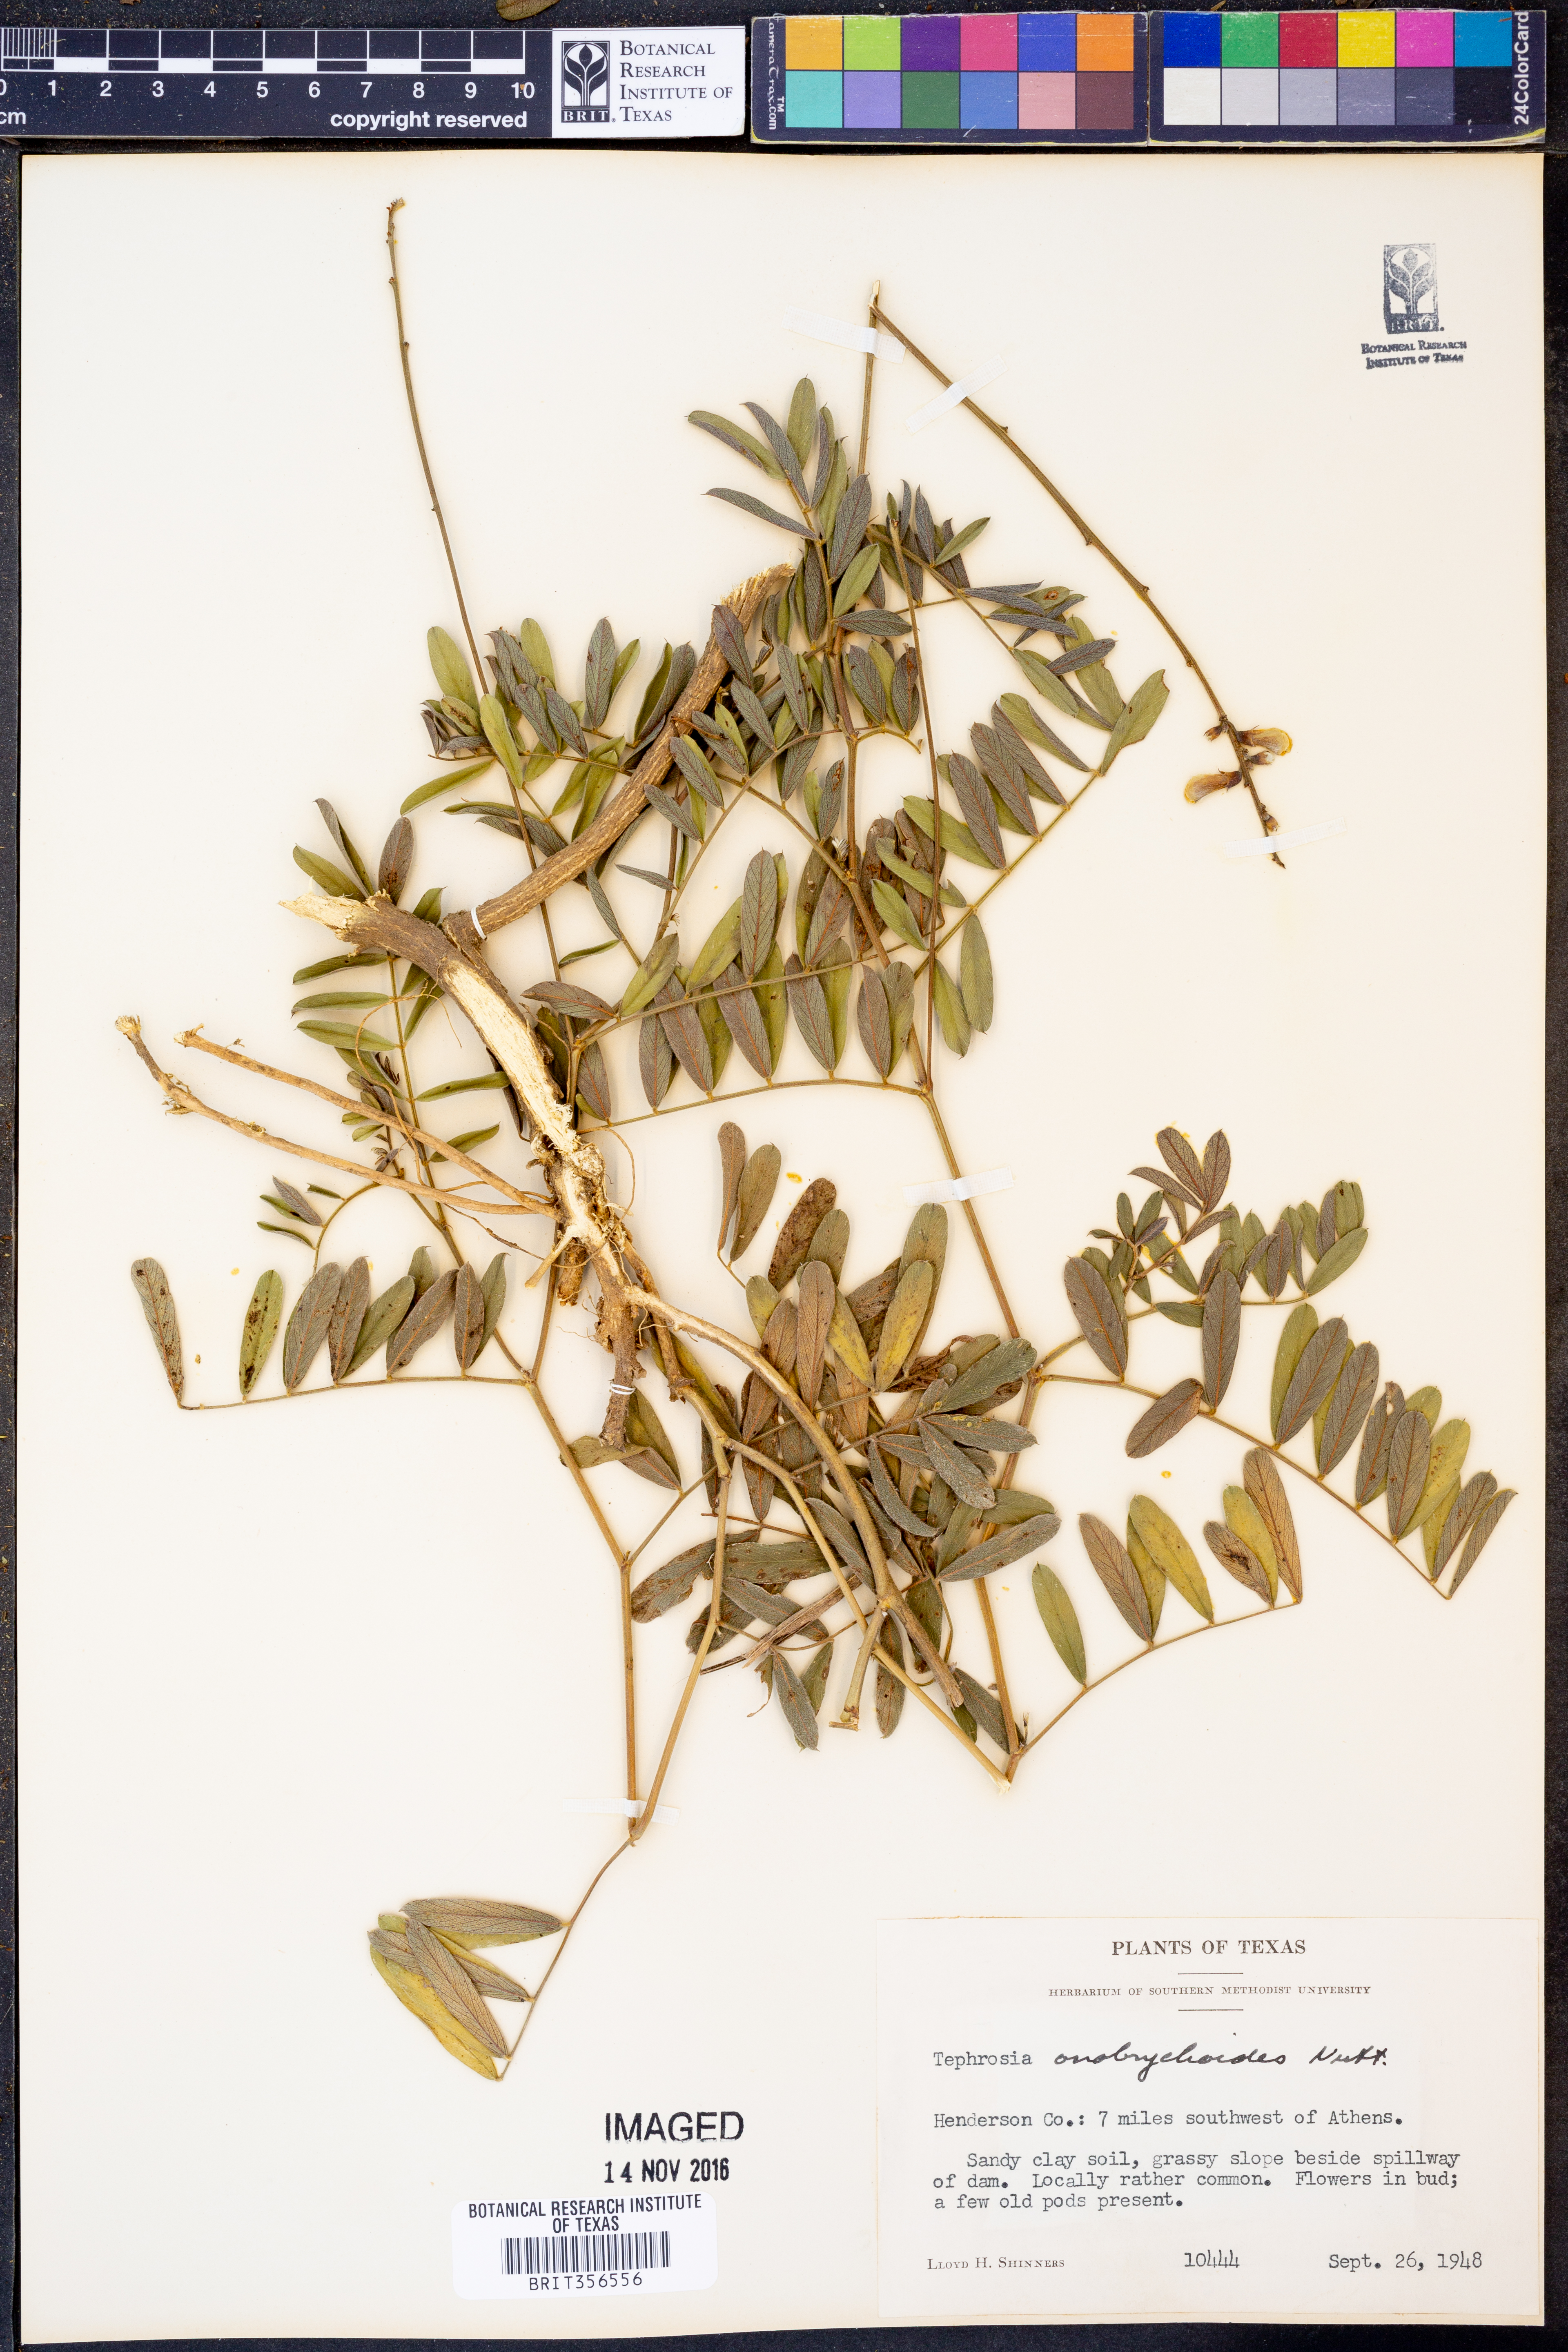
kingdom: Plantae
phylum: Tracheophyta
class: Magnoliopsida
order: Fabales
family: Fabaceae
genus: Tephrosia
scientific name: Tephrosia onobrychoides
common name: Multi-bloom hoary-pea
